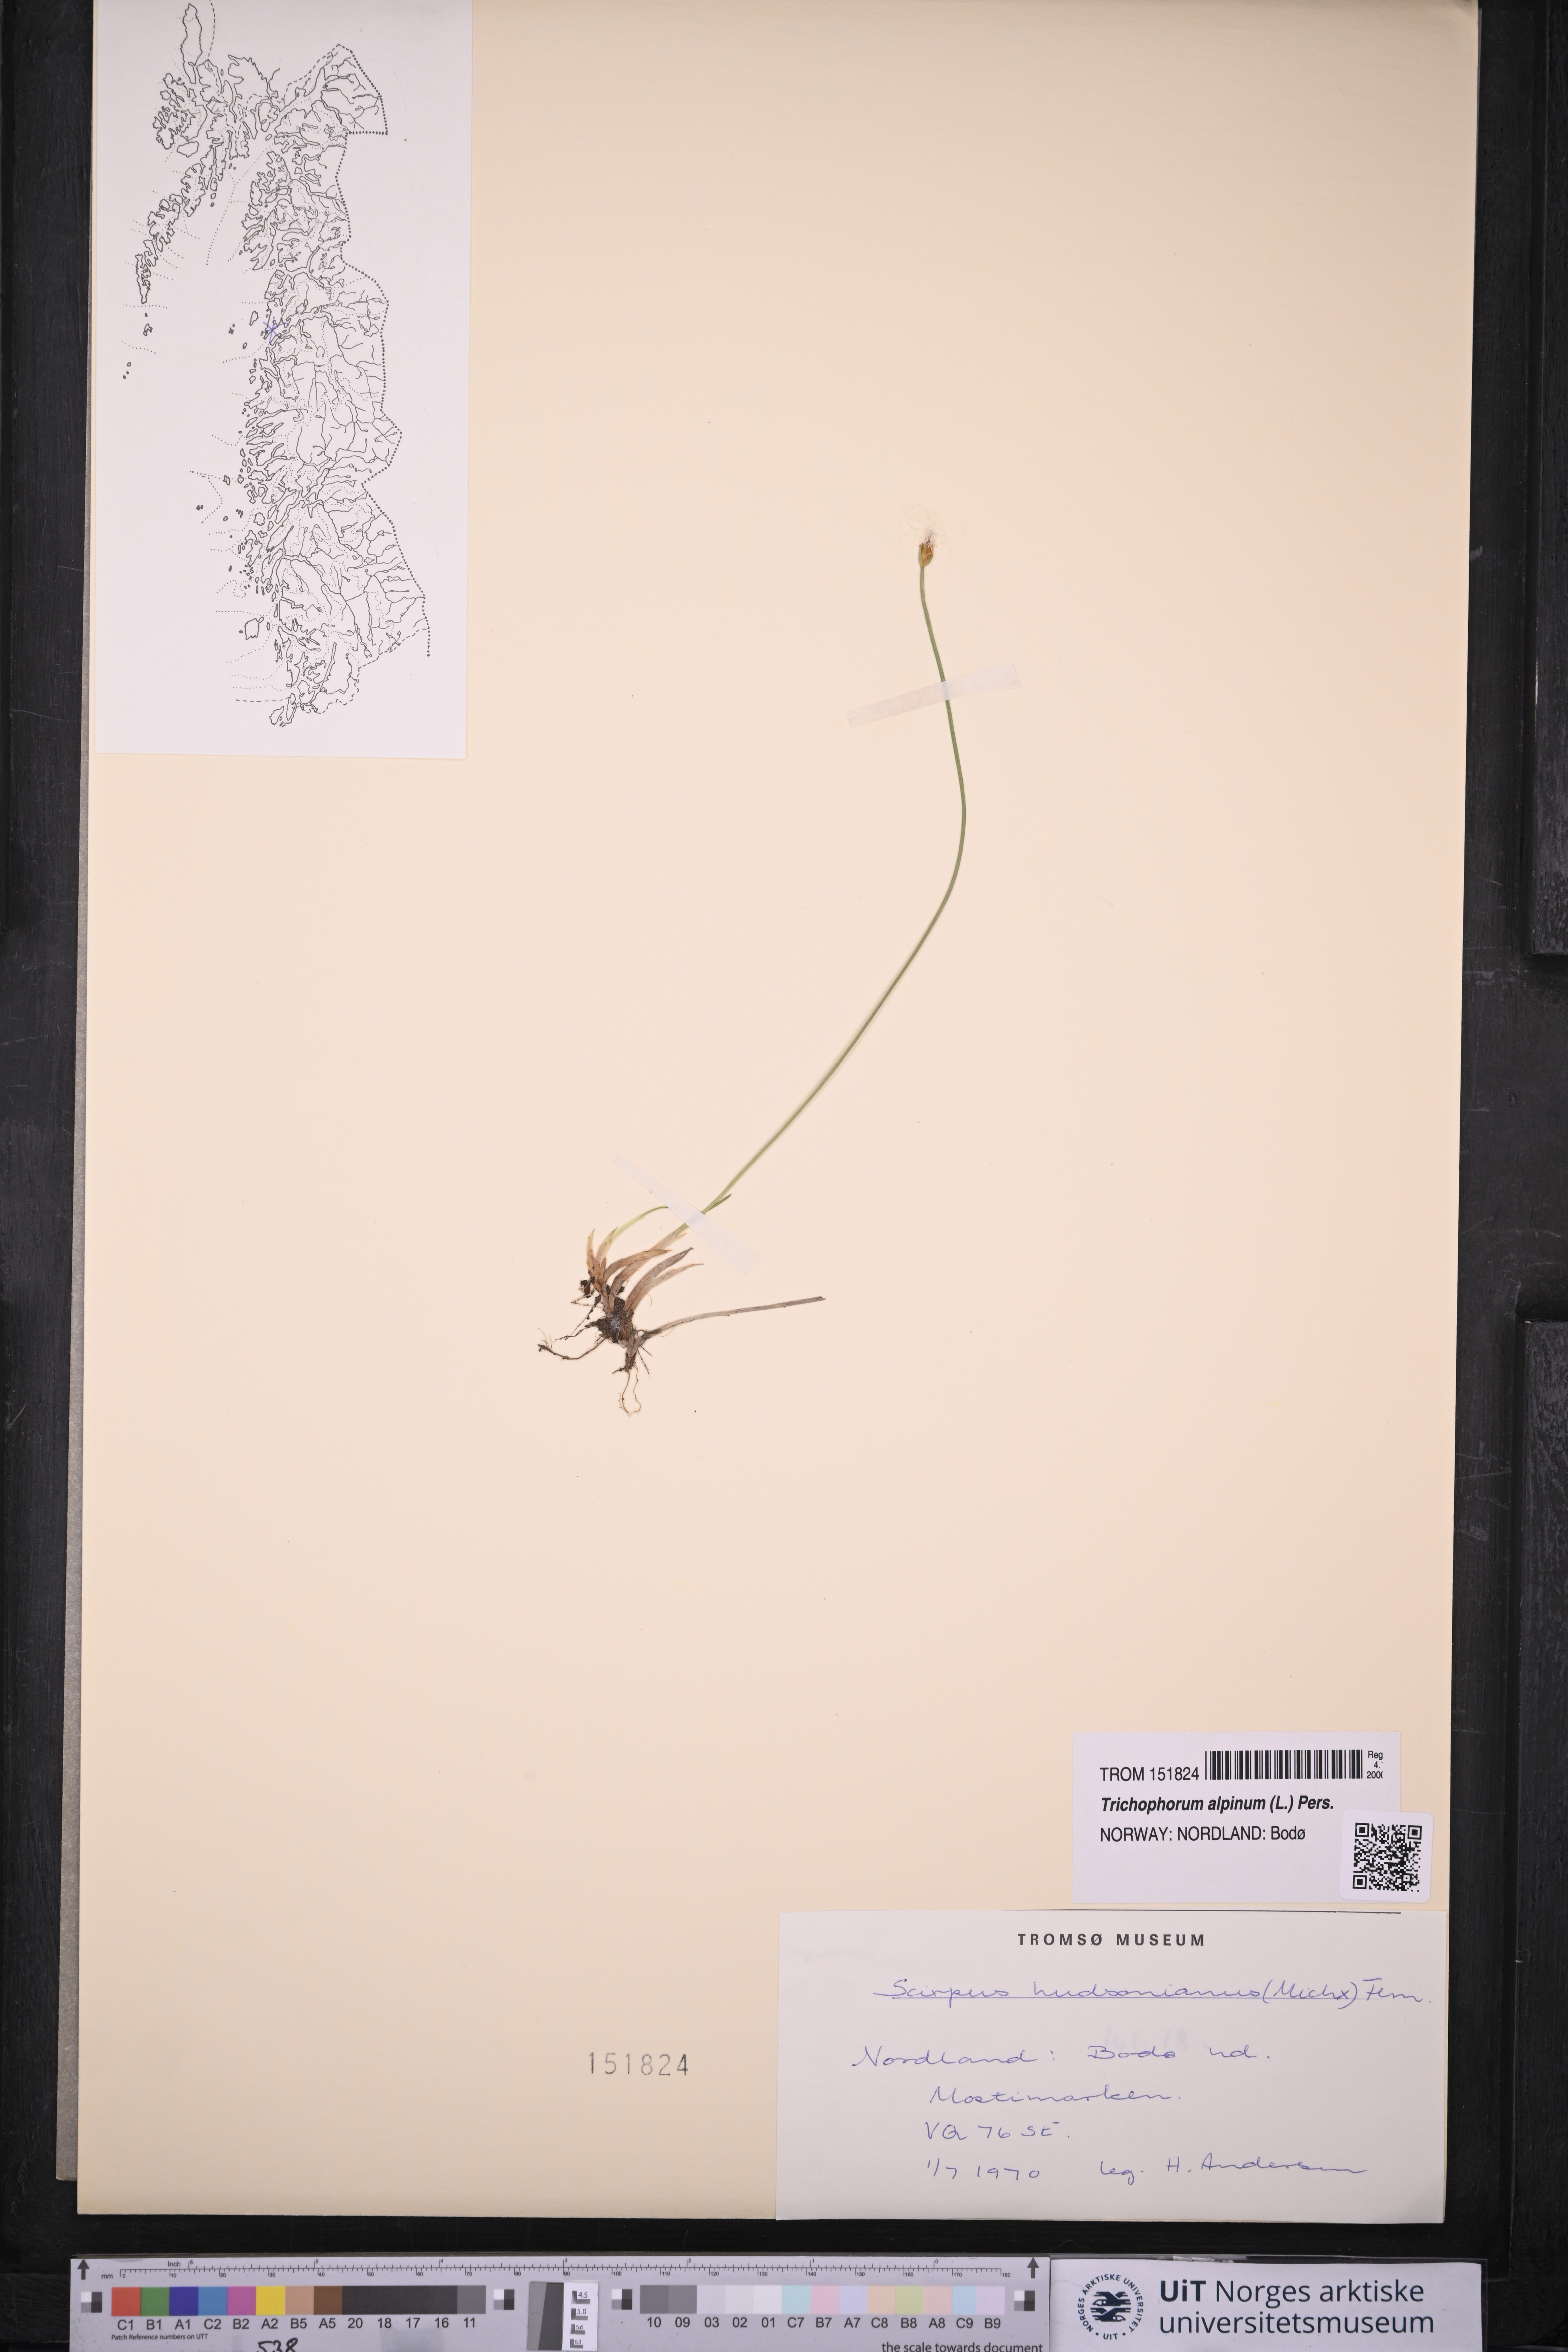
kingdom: Plantae
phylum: Tracheophyta
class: Liliopsida
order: Poales
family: Cyperaceae
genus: Trichophorum
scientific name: Trichophorum alpinum
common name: Alpine bulrush
